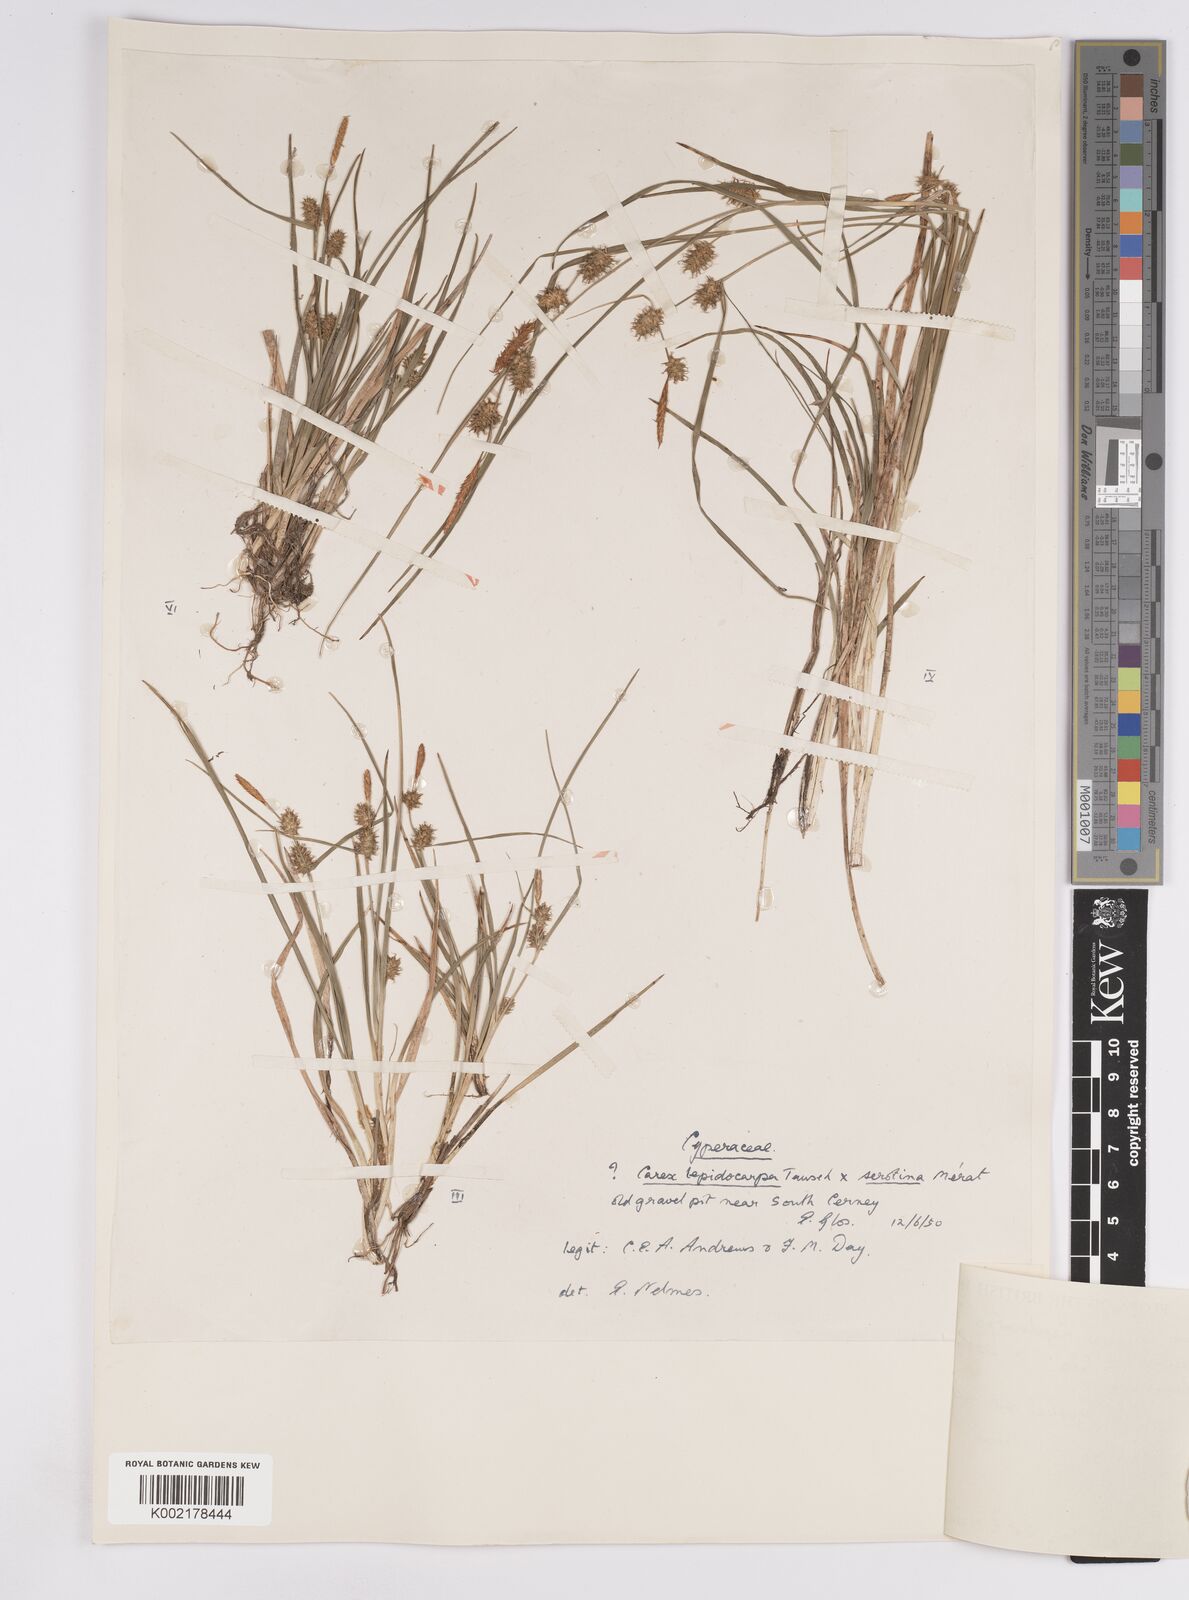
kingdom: Plantae
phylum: Tracheophyta
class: Liliopsida
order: Poales
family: Cyperaceae
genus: Carex
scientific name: Carex lepidocarpa
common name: Long-stalked yellow-sedge
